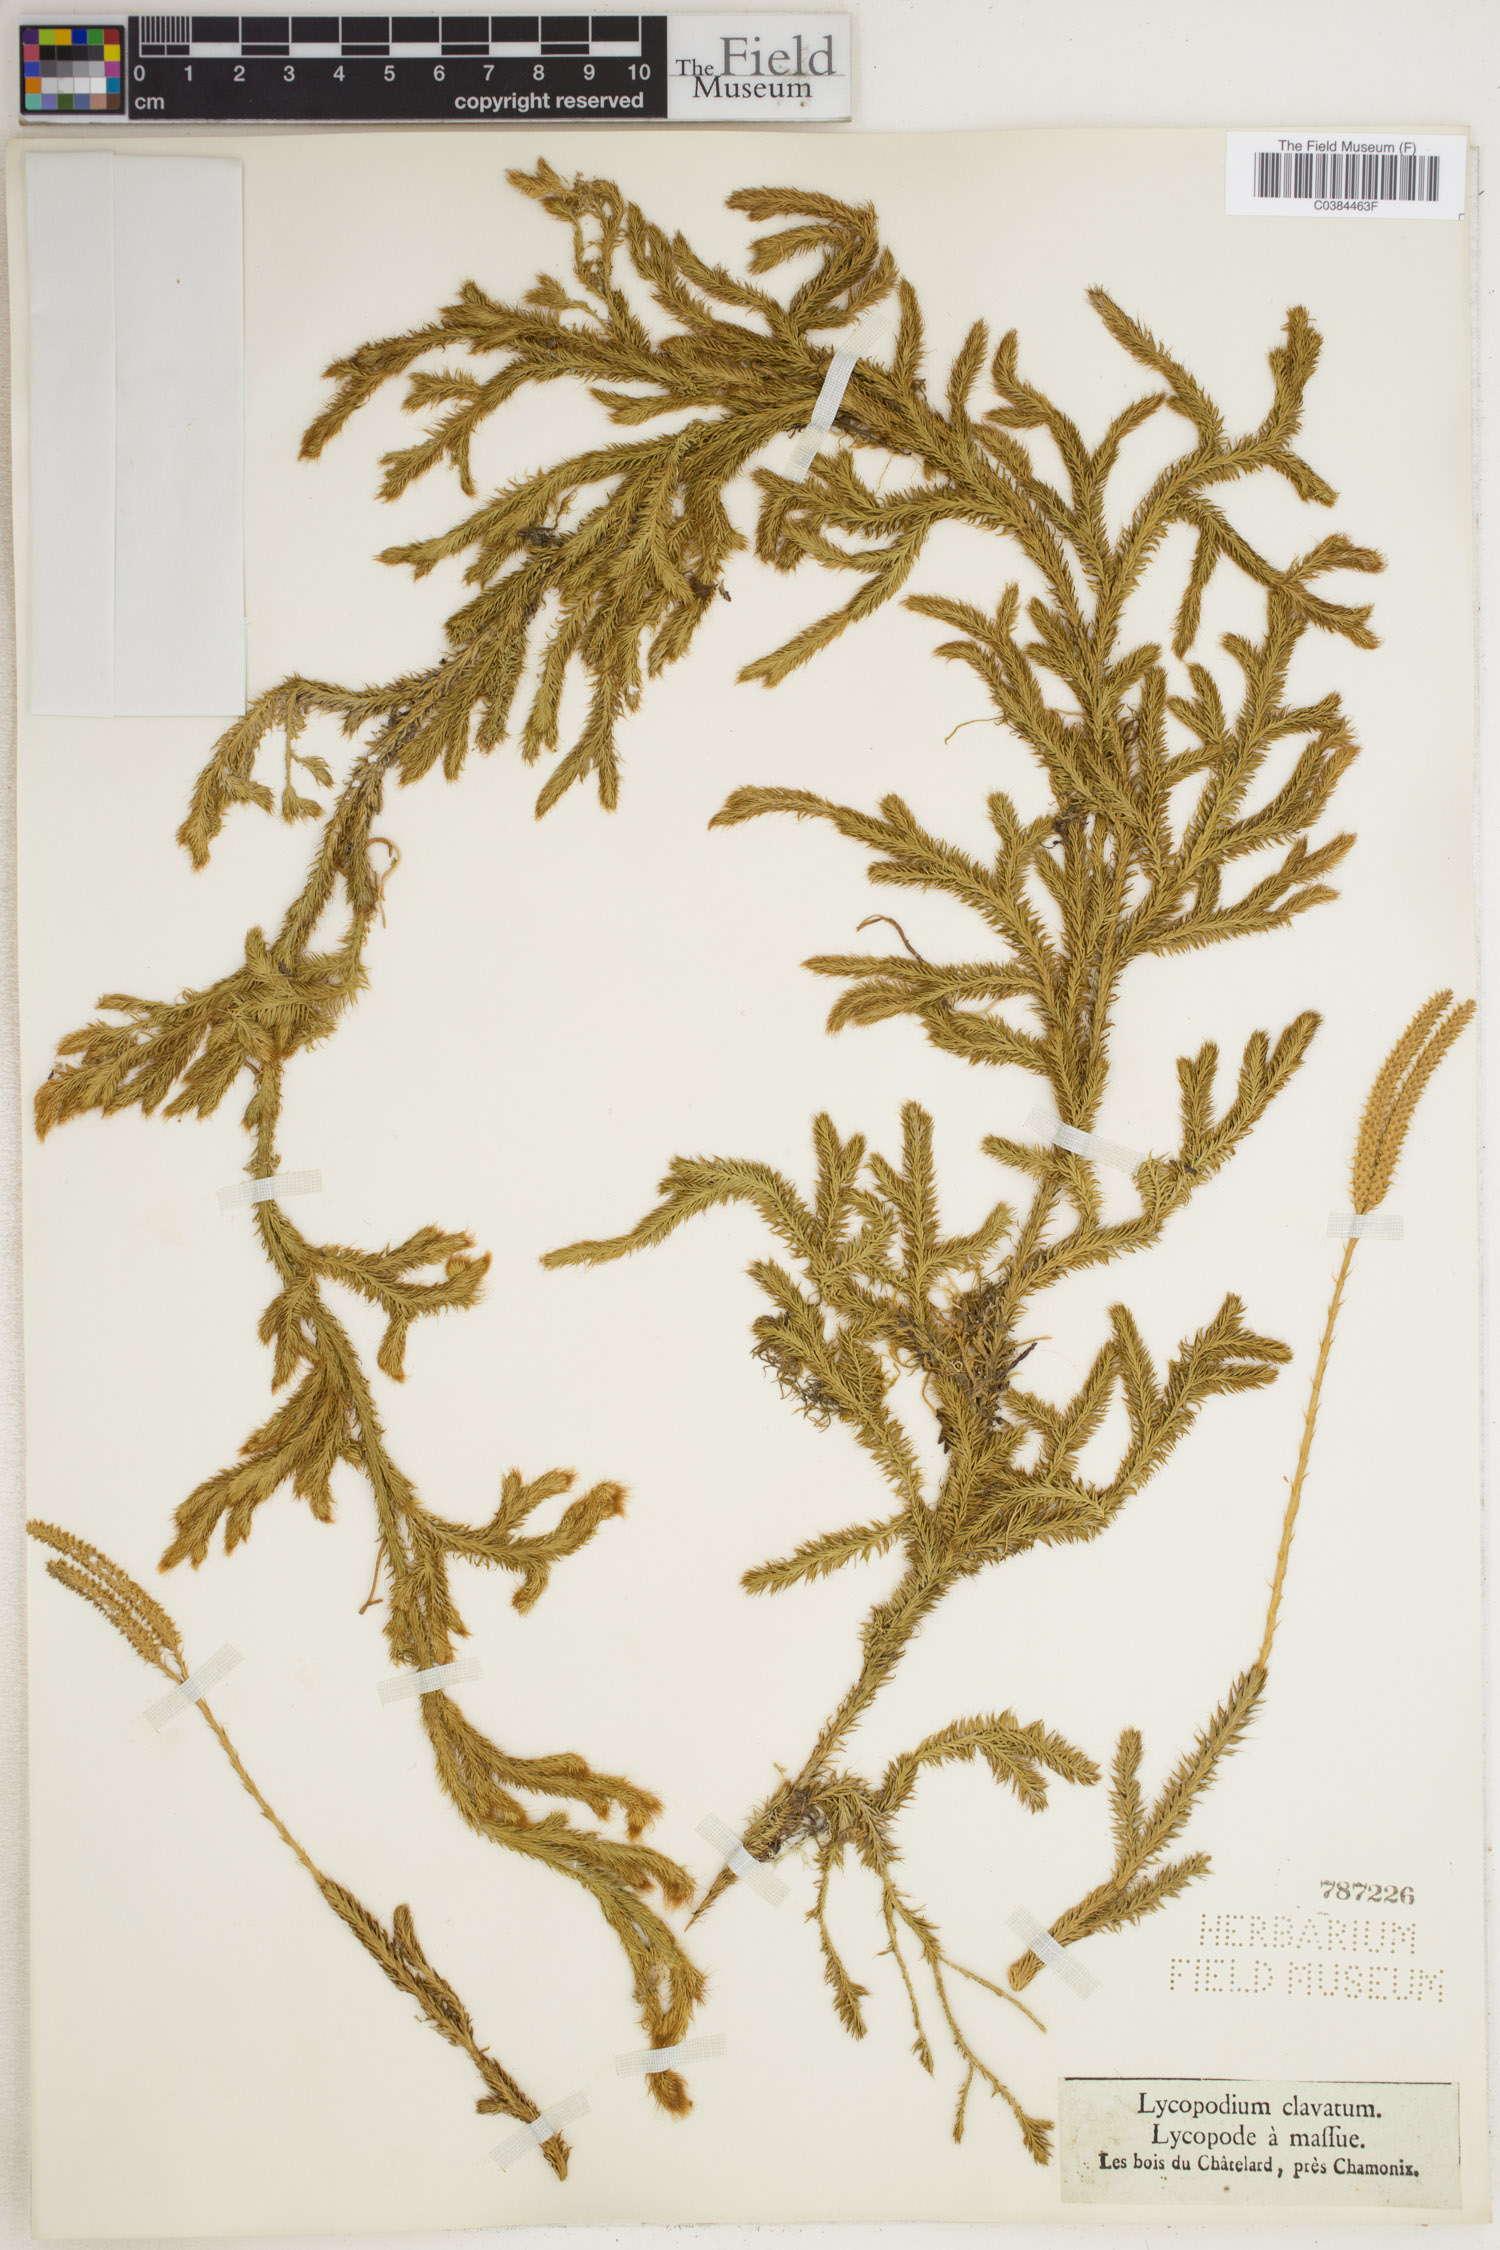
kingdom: Plantae
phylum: Tracheophyta
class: Lycopodiopsida
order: Lycopodiales
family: Lycopodiaceae
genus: Lycopodium
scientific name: Lycopodium clavatum
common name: Stag's-horn clubmoss
